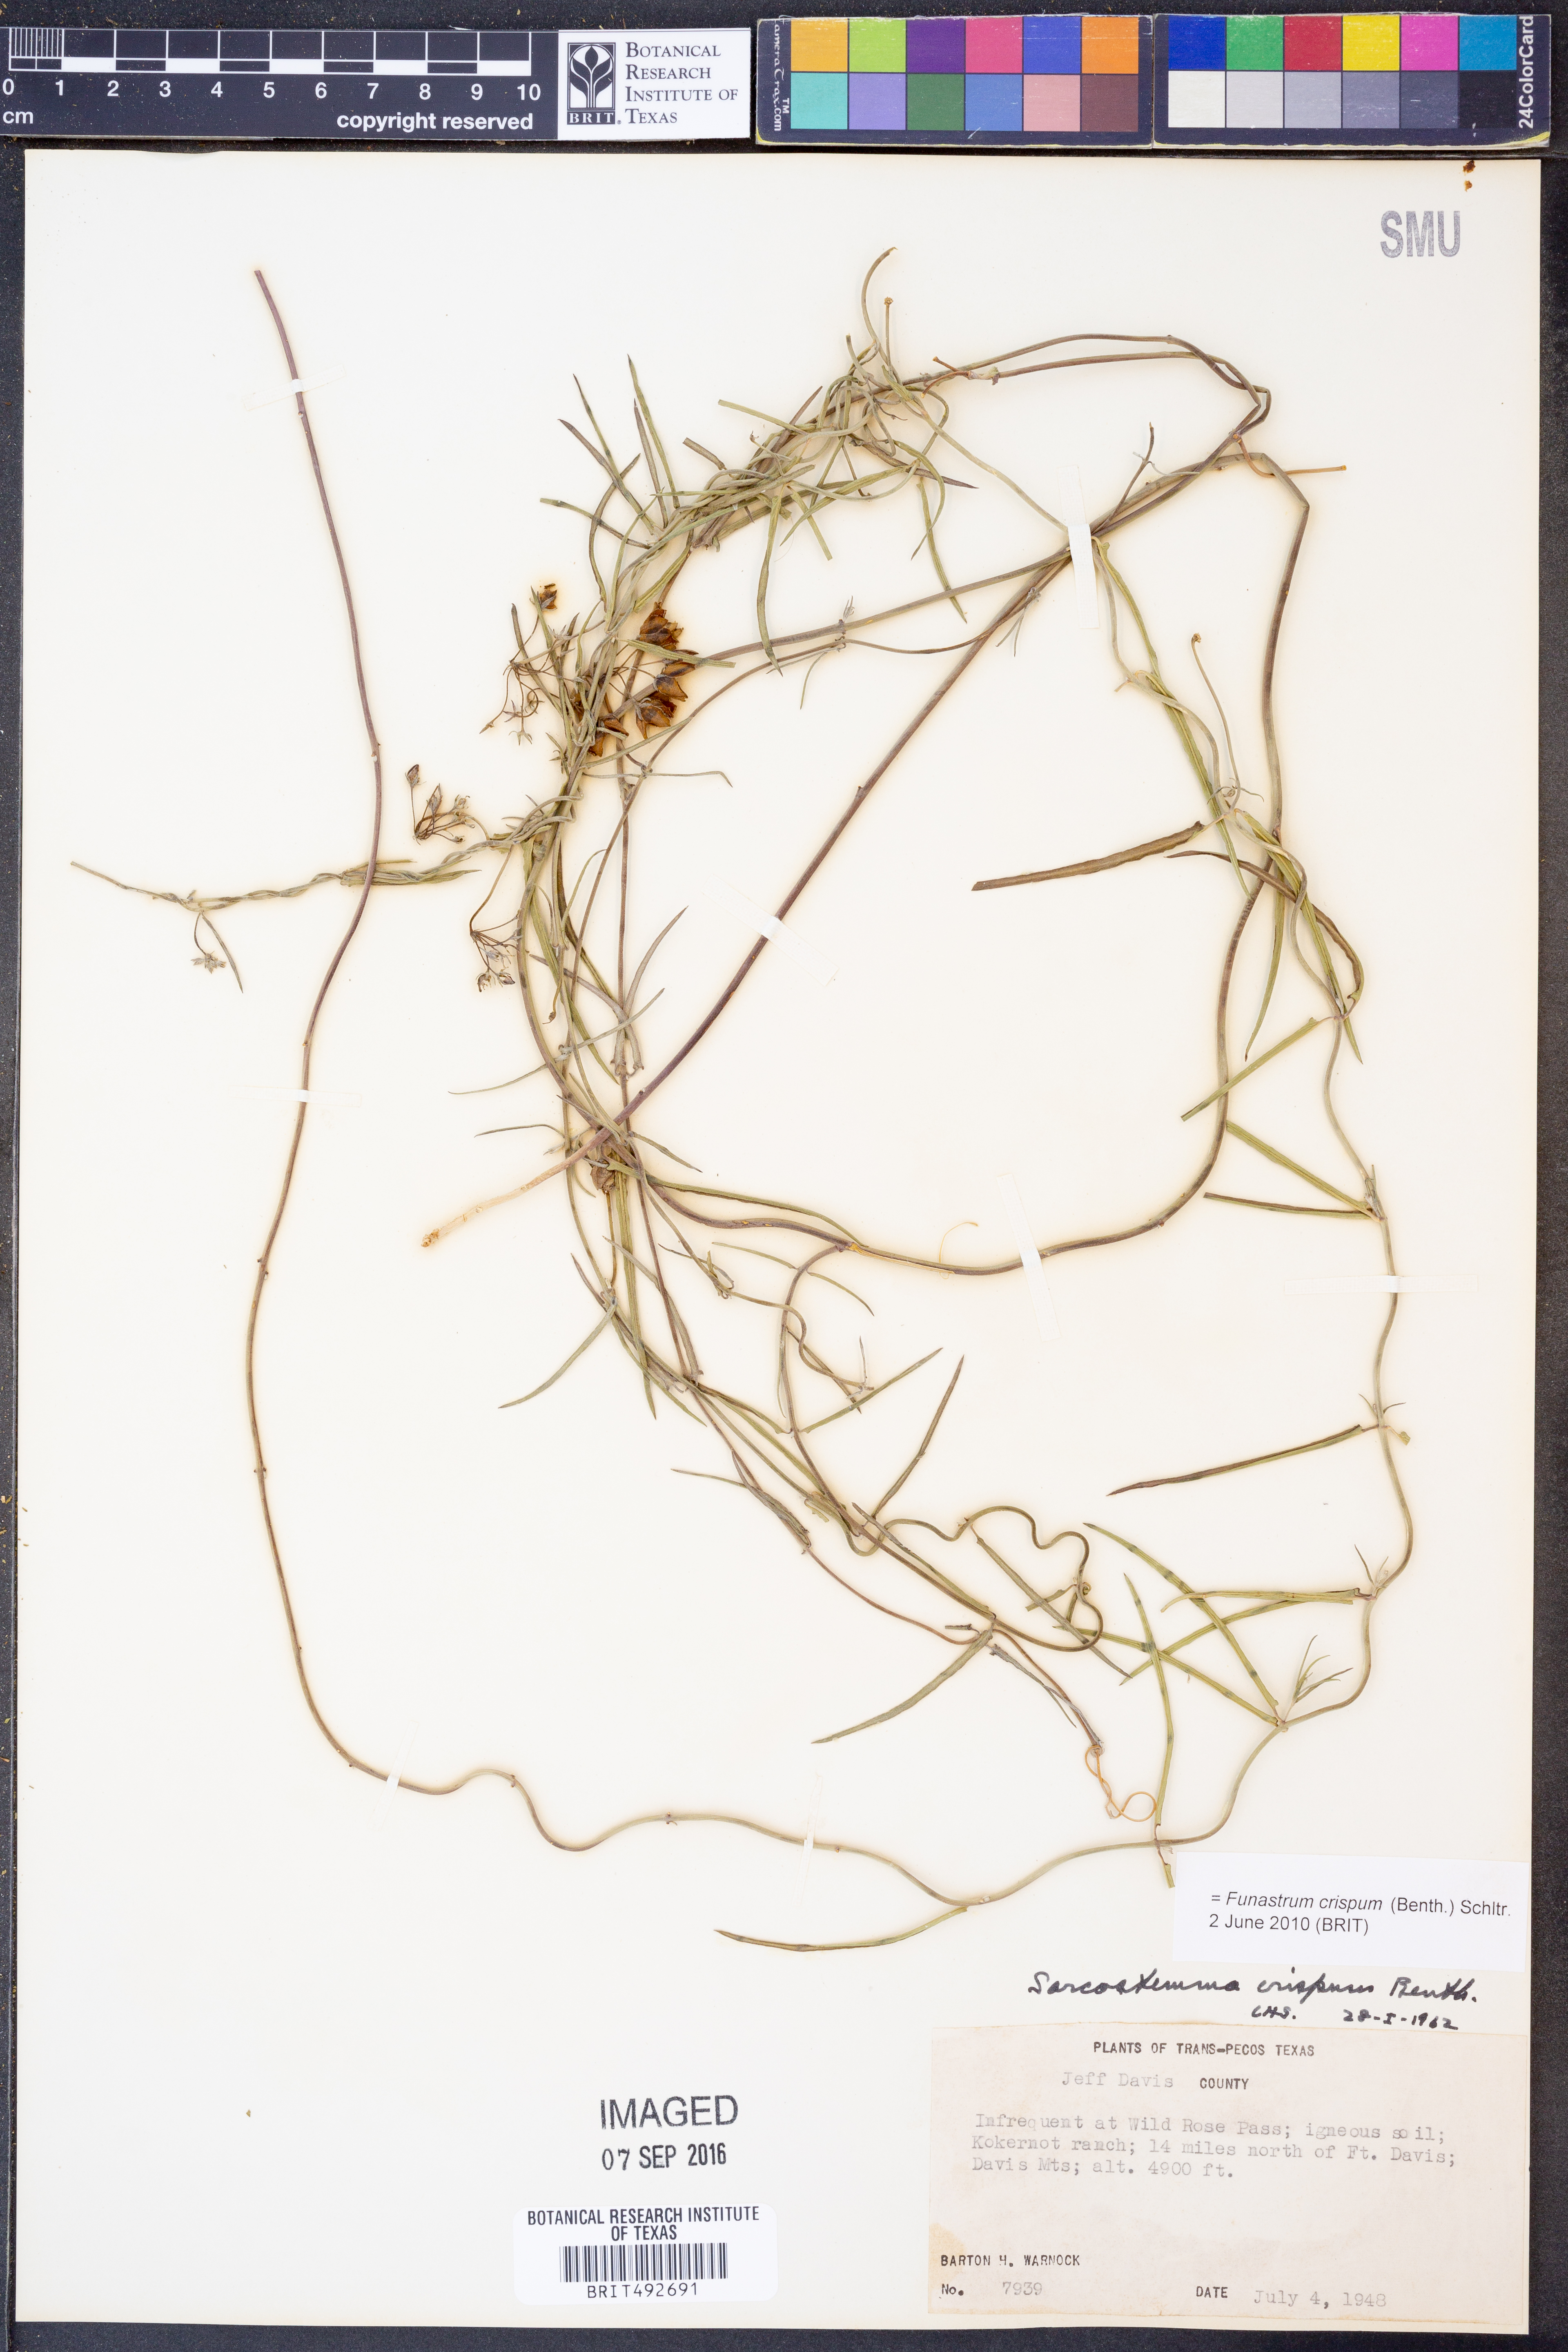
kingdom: Plantae
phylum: Tracheophyta
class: Magnoliopsida
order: Gentianales
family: Apocynaceae
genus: Funastrum
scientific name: Funastrum crispum
